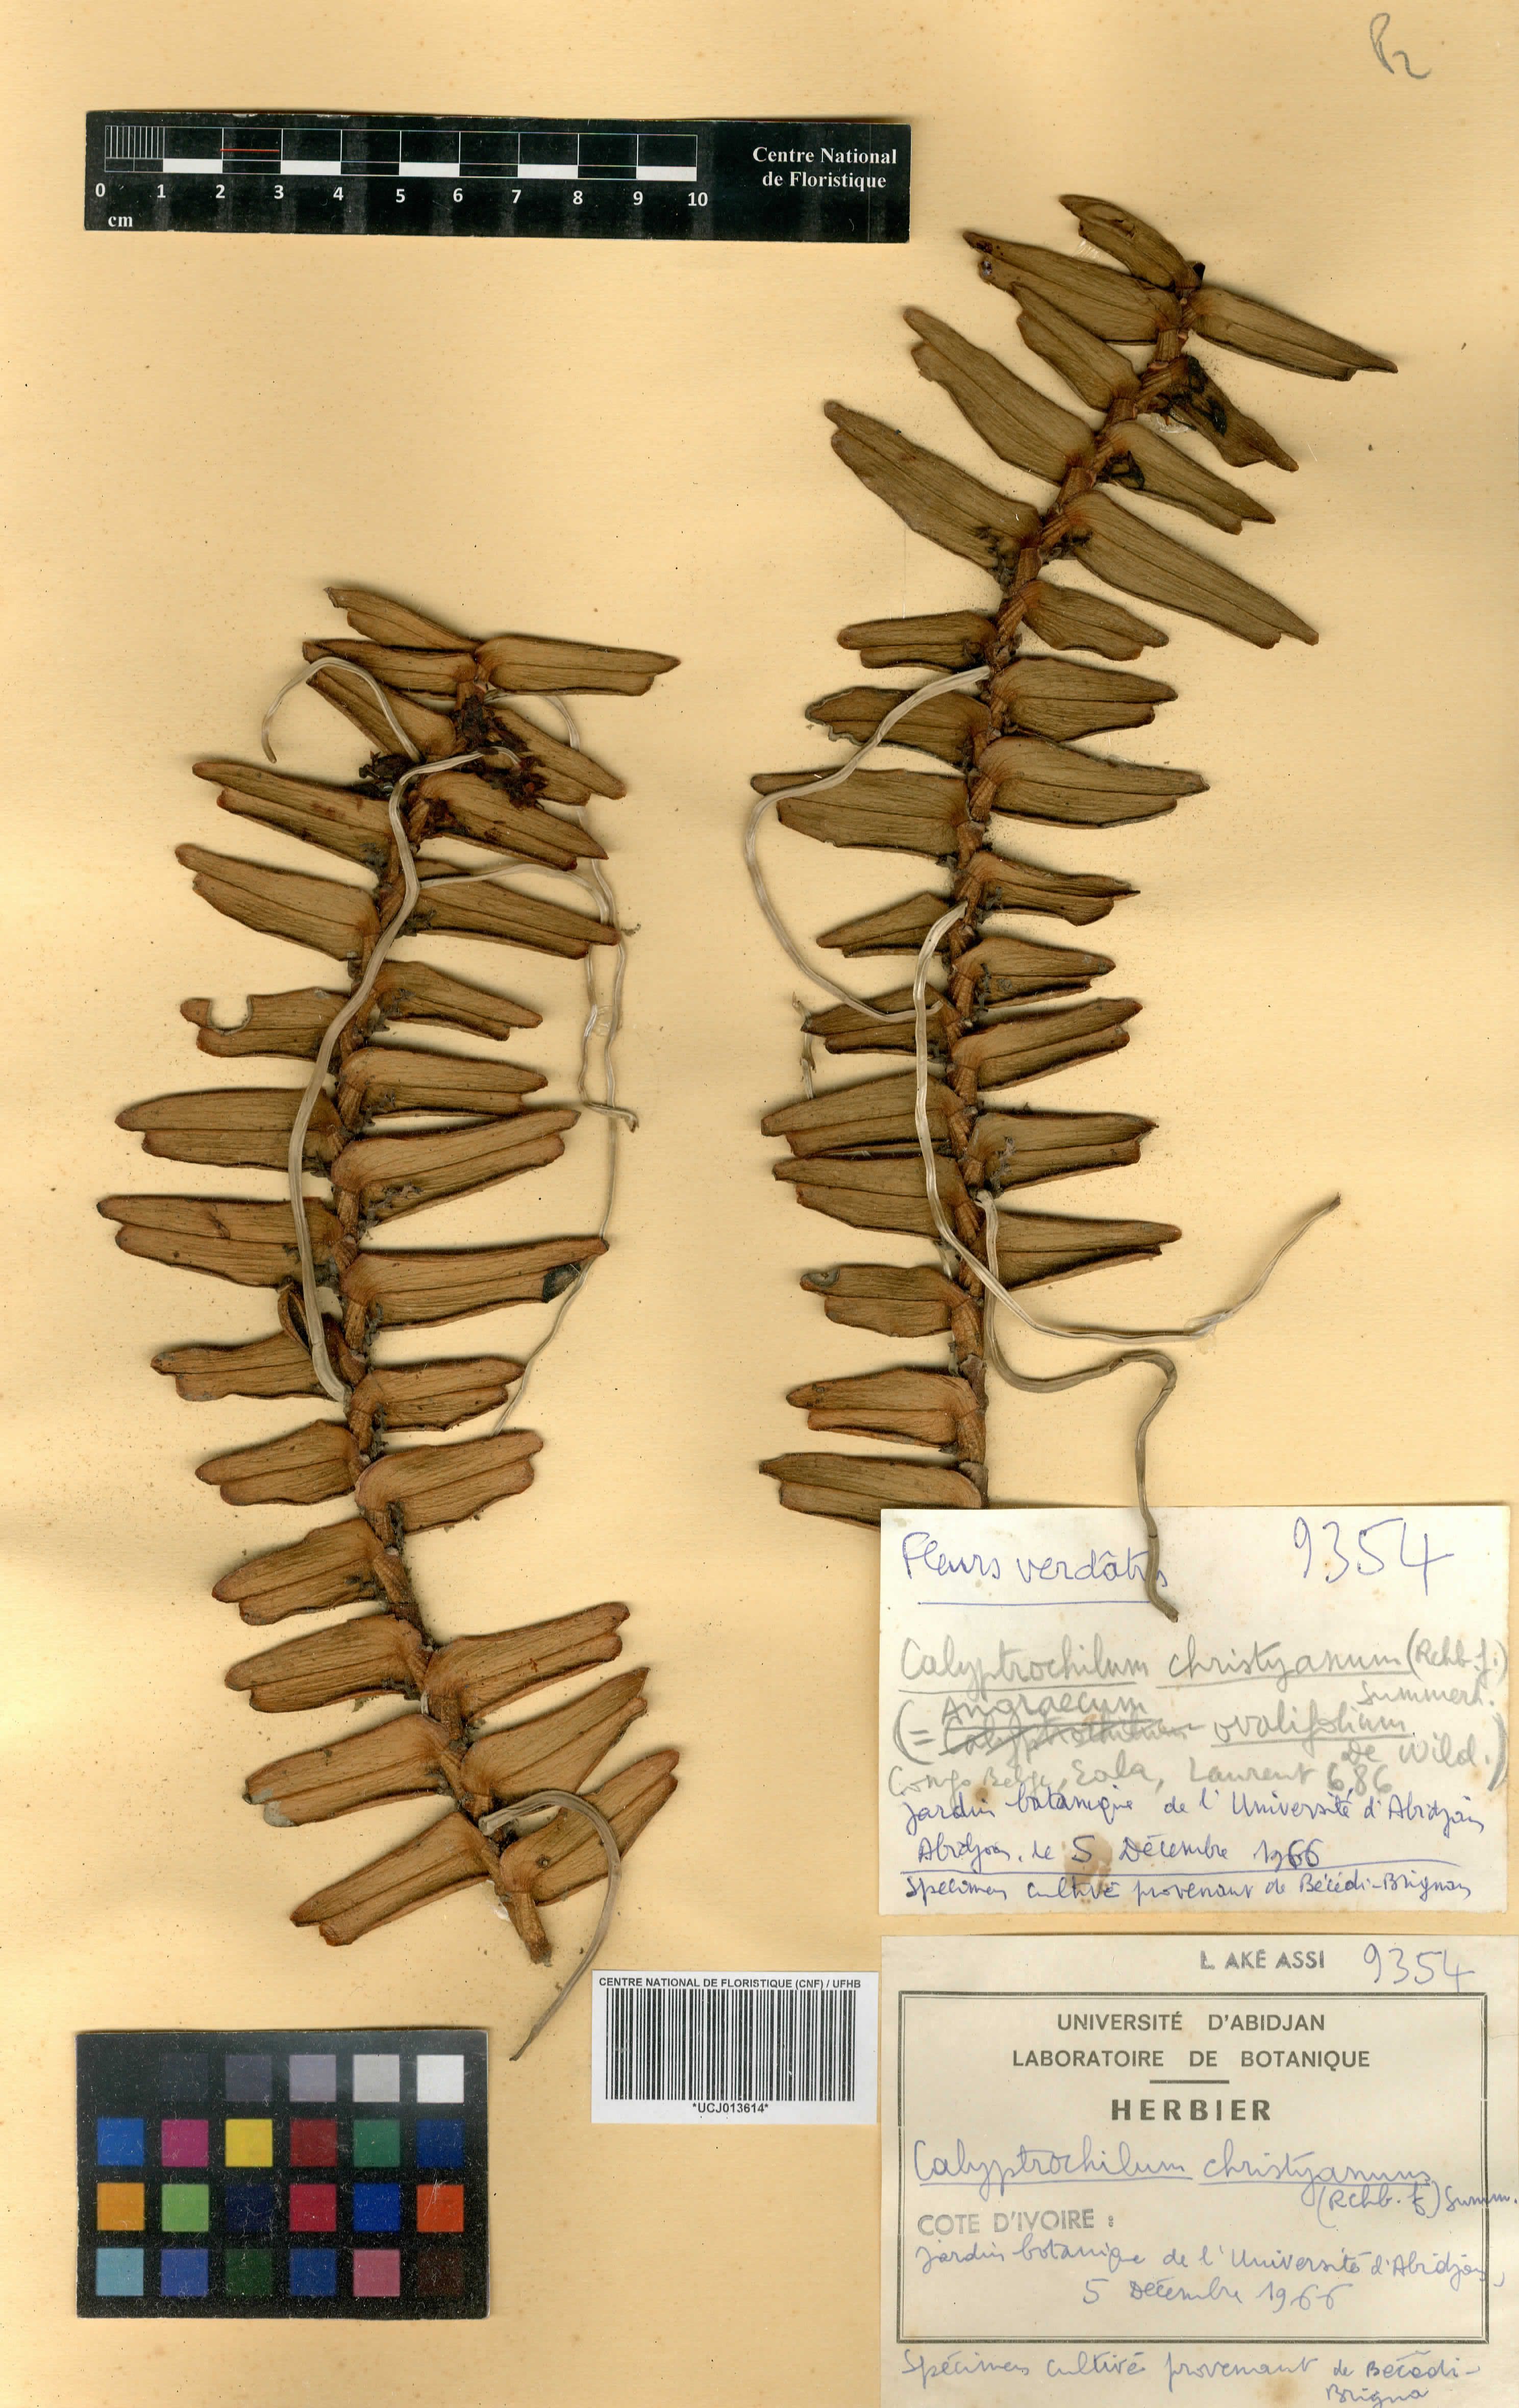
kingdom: Plantae
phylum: Tracheophyta
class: Liliopsida
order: Asparagales
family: Orchidaceae
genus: Calyptrochilum
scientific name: Calyptrochilum christyanum
